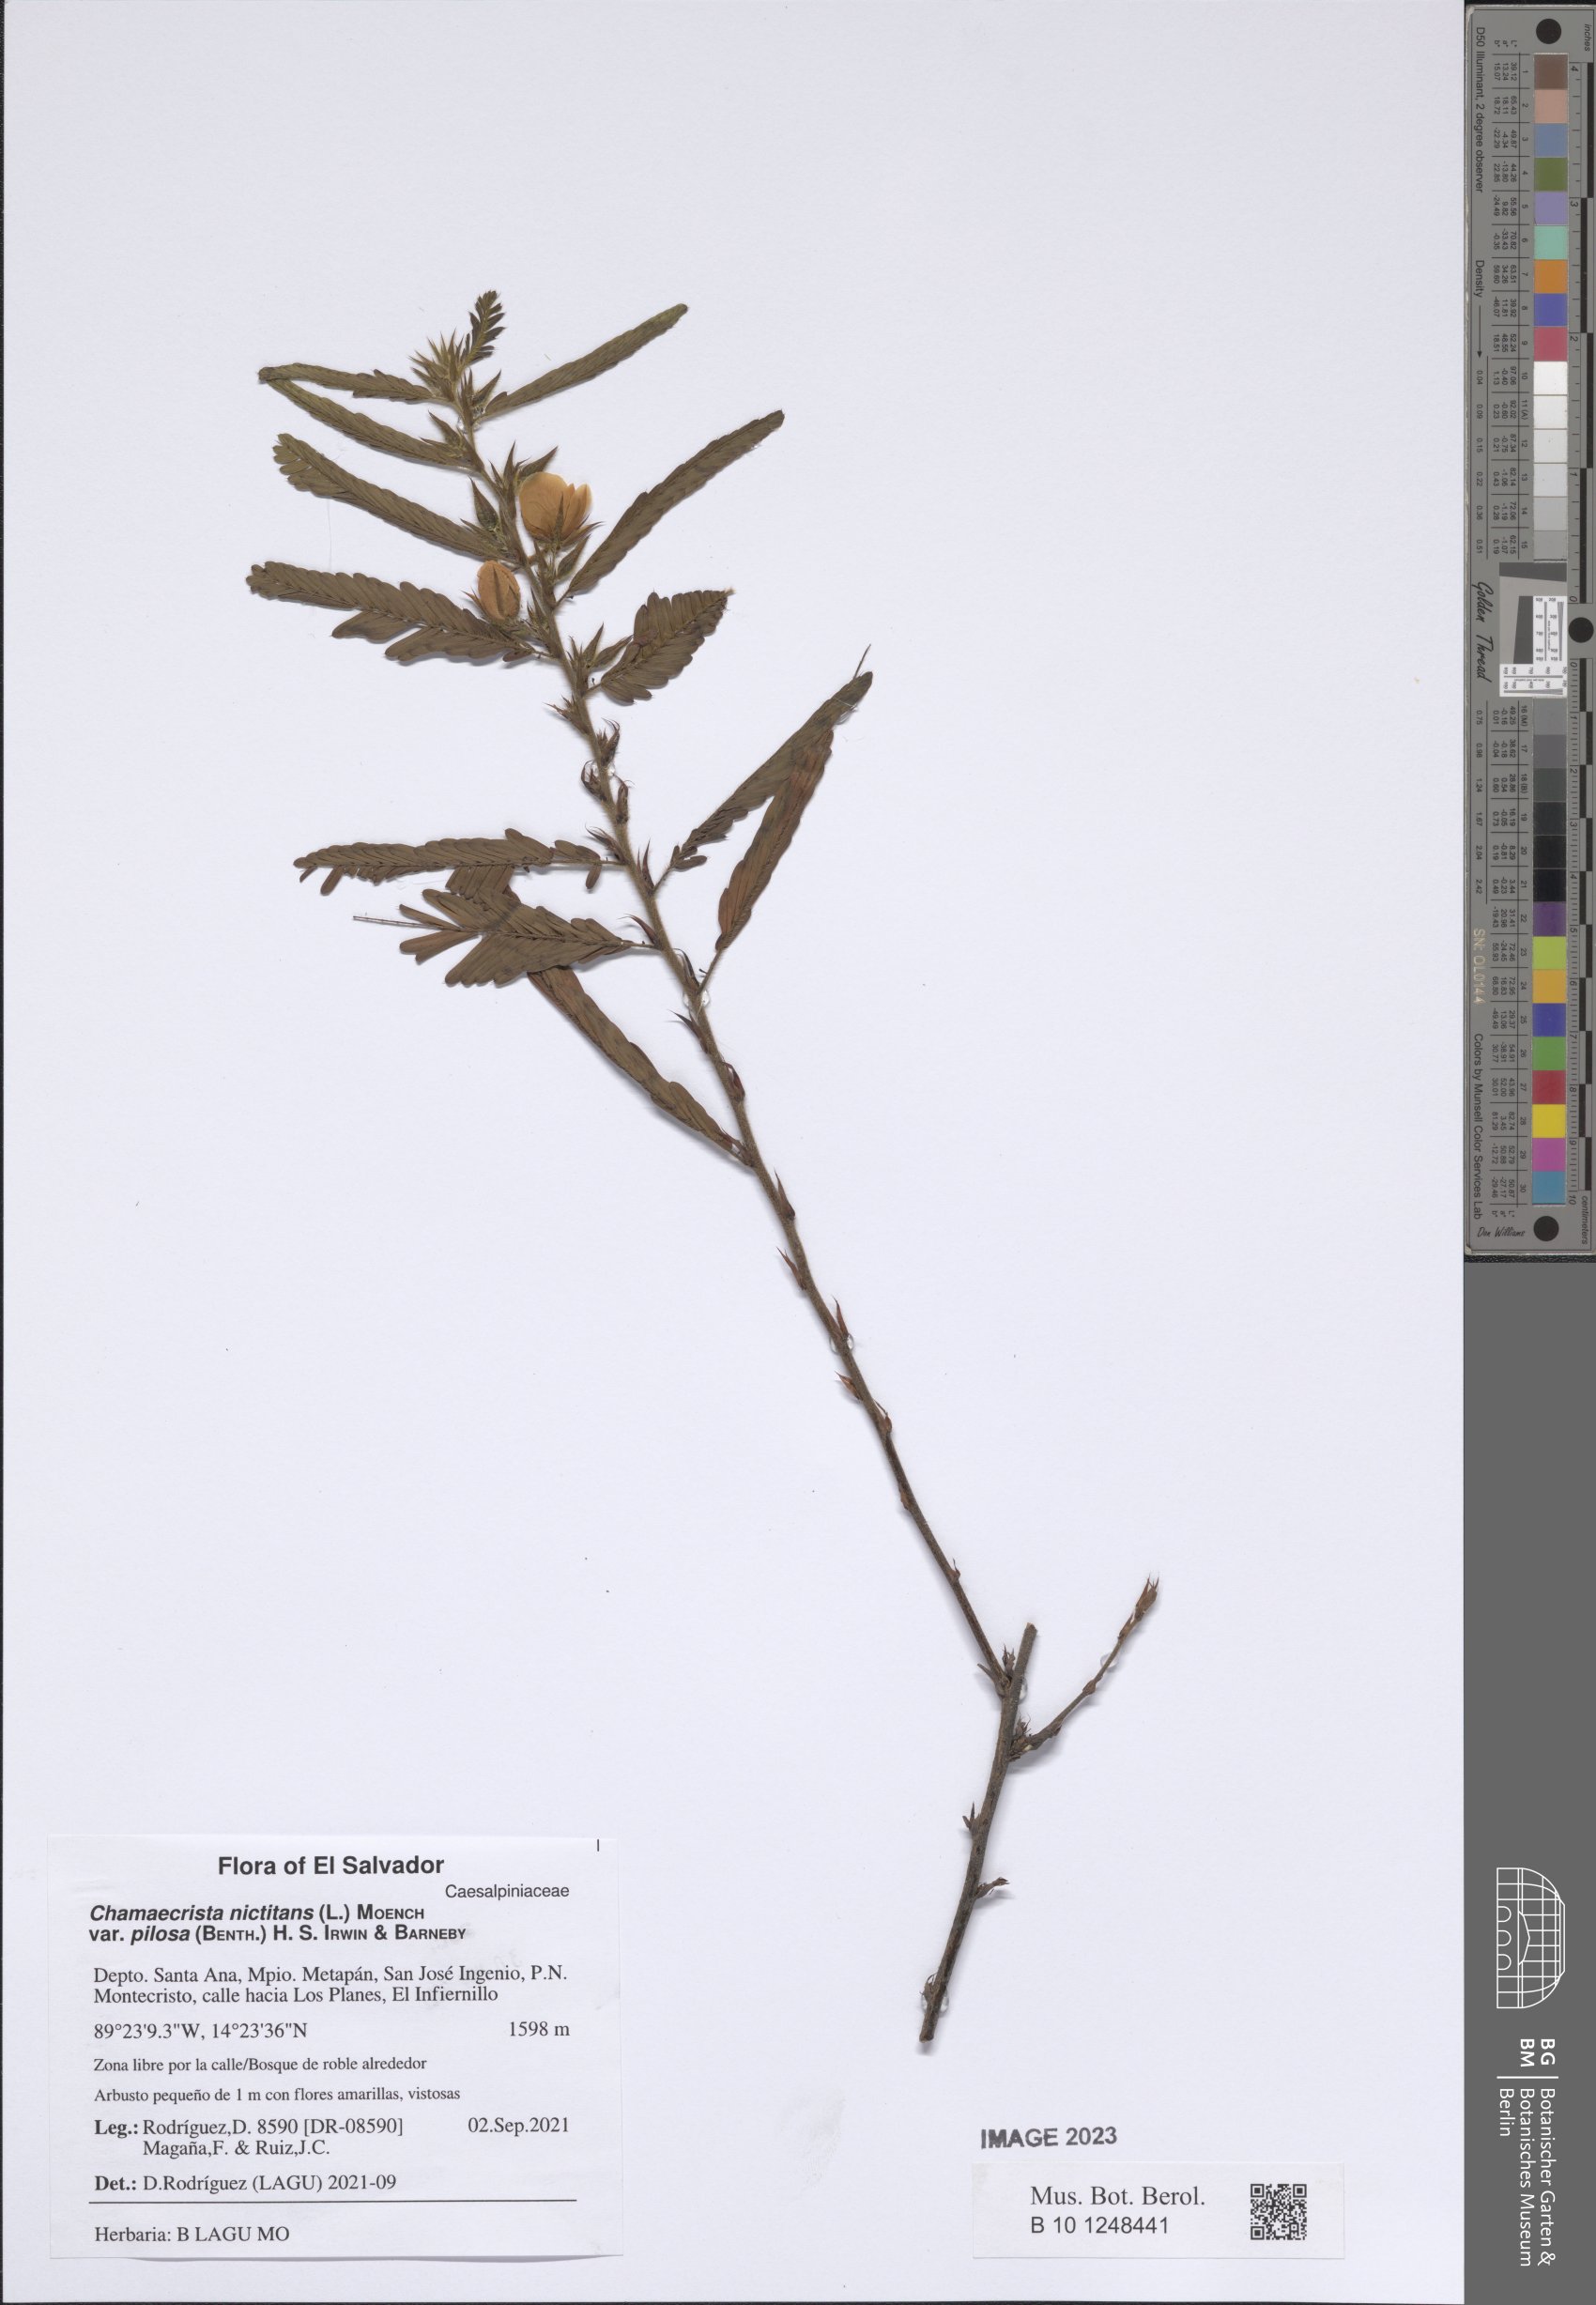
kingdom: Plantae
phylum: Tracheophyta
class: Magnoliopsida
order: Fabales
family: Fabaceae
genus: Chamaecrista
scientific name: Chamaecrista nictitans
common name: Sensitive cassia
